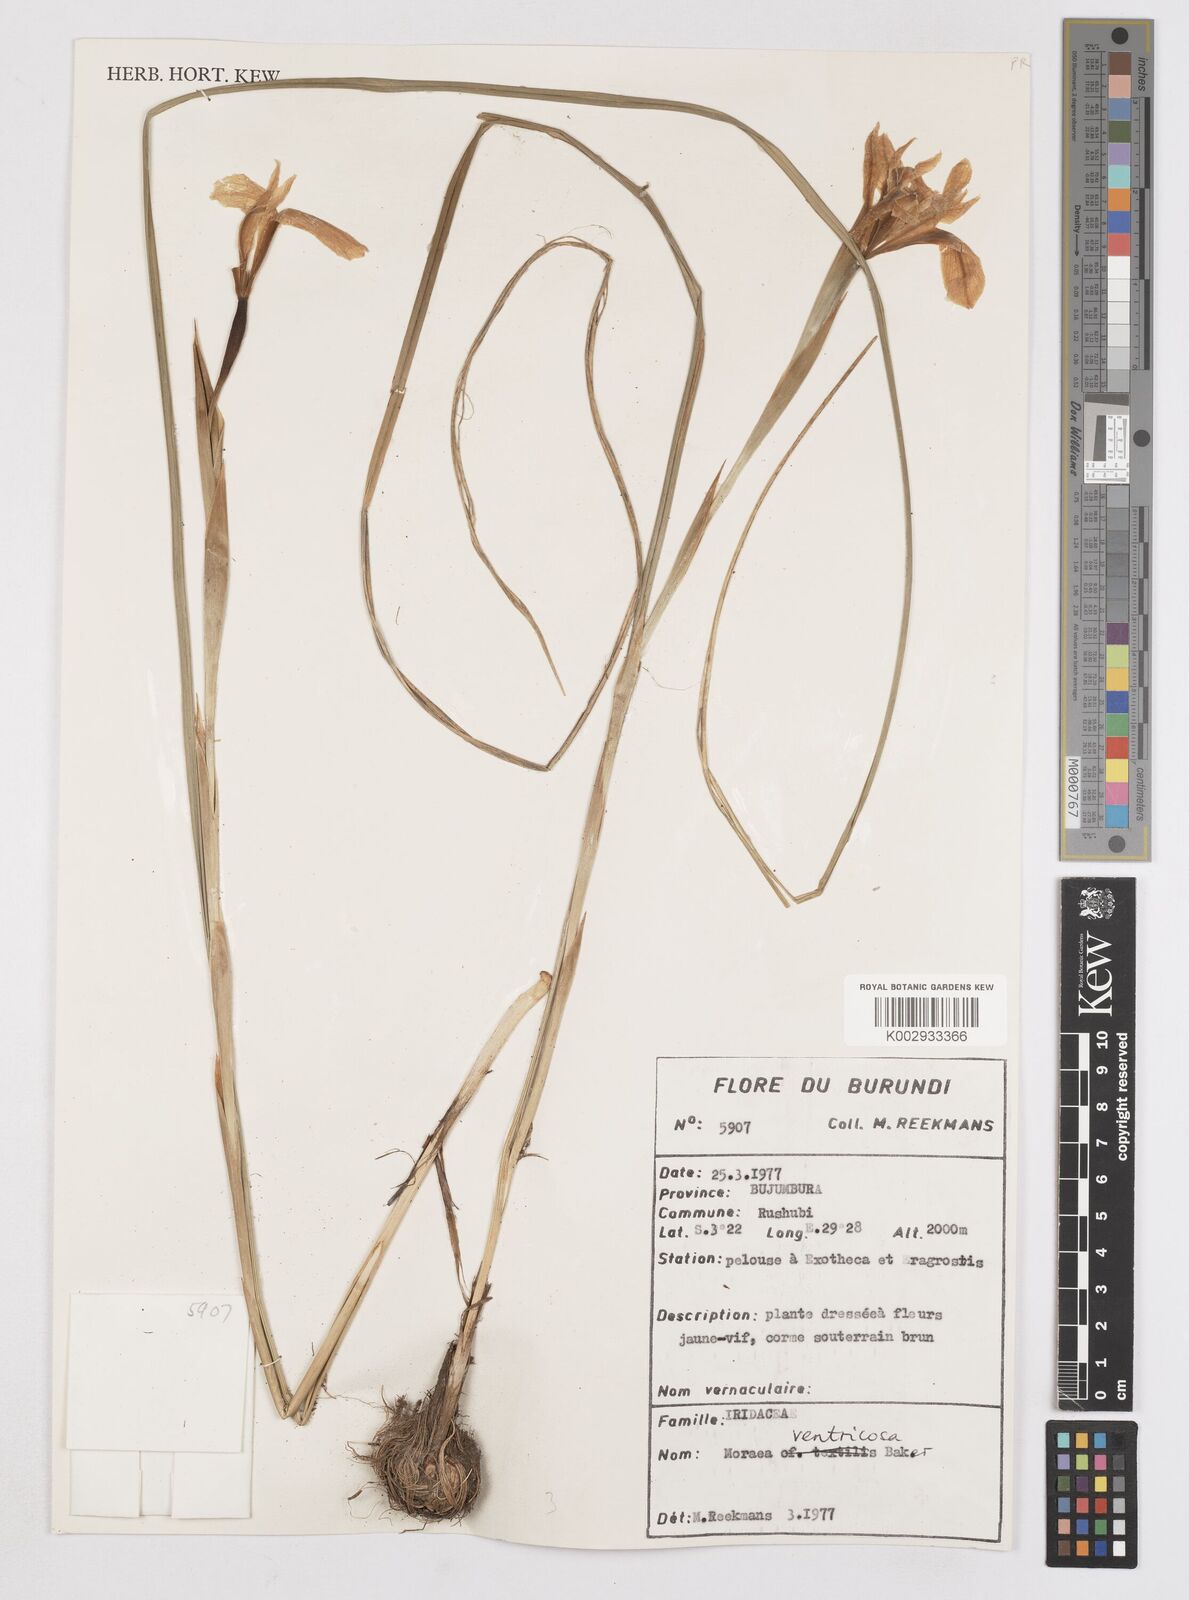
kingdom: Plantae
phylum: Tracheophyta
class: Liliopsida
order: Asparagales
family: Iridaceae
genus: Moraea
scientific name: Moraea ventricosa
